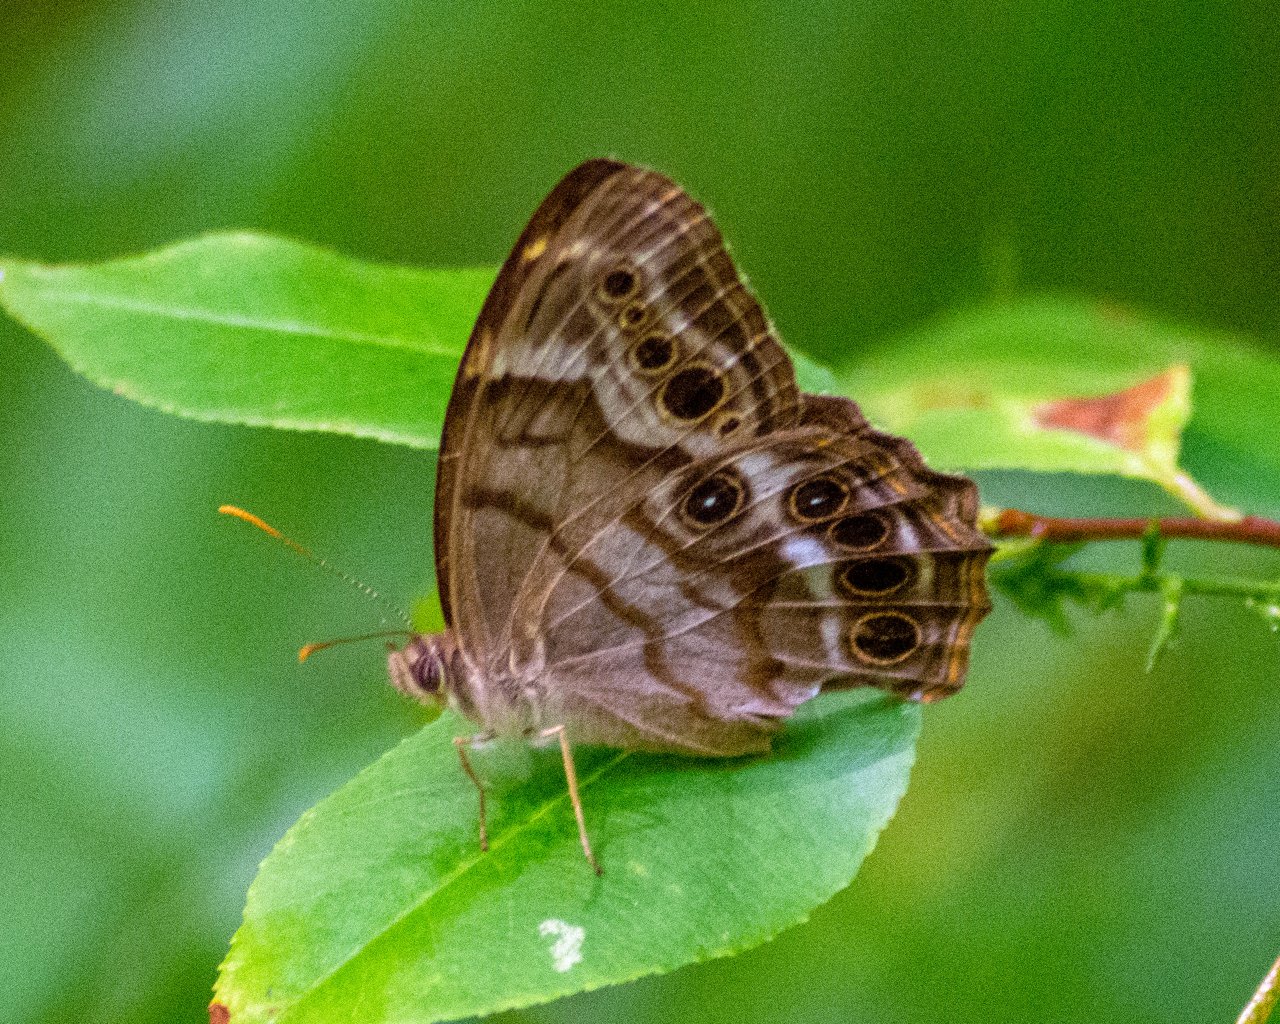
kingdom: Animalia
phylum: Arthropoda
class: Insecta
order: Lepidoptera
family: Nymphalidae
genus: Enodia
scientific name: Enodia portlandia
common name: Southern Pearly Eye
